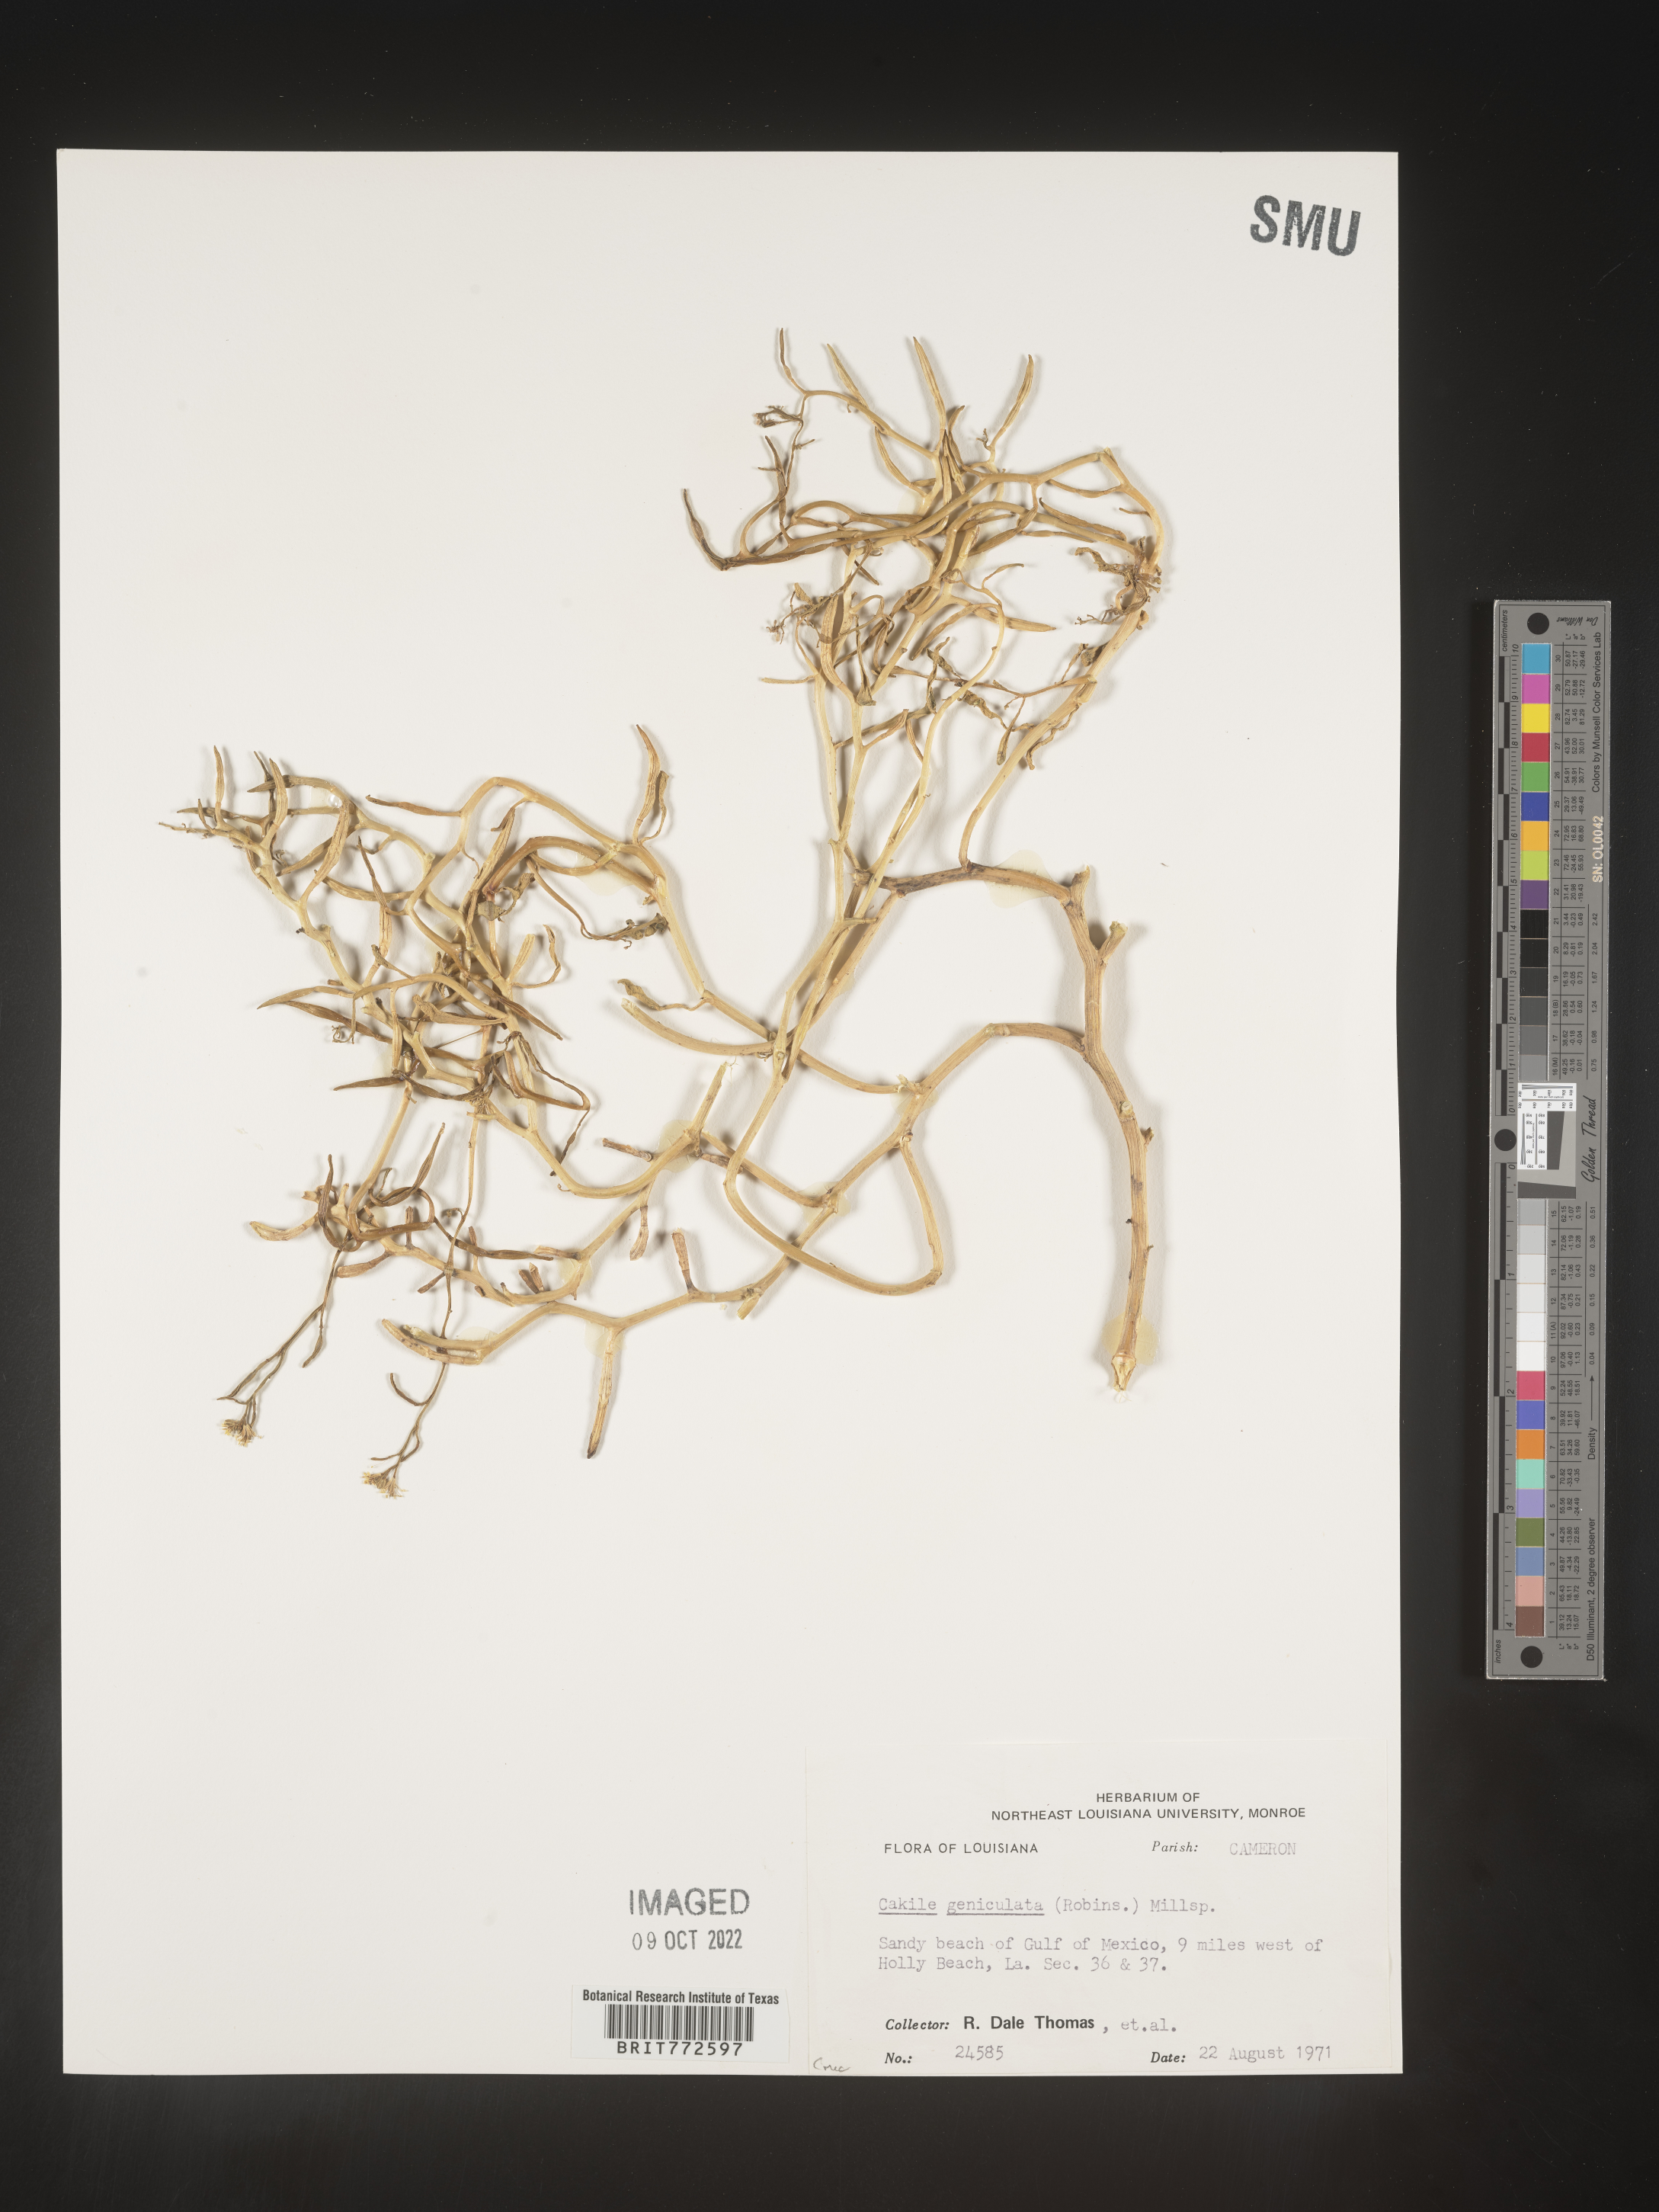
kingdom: Plantae
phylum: Tracheophyta
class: Magnoliopsida
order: Brassicales
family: Brassicaceae
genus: Cakile
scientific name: Cakile geniculata
